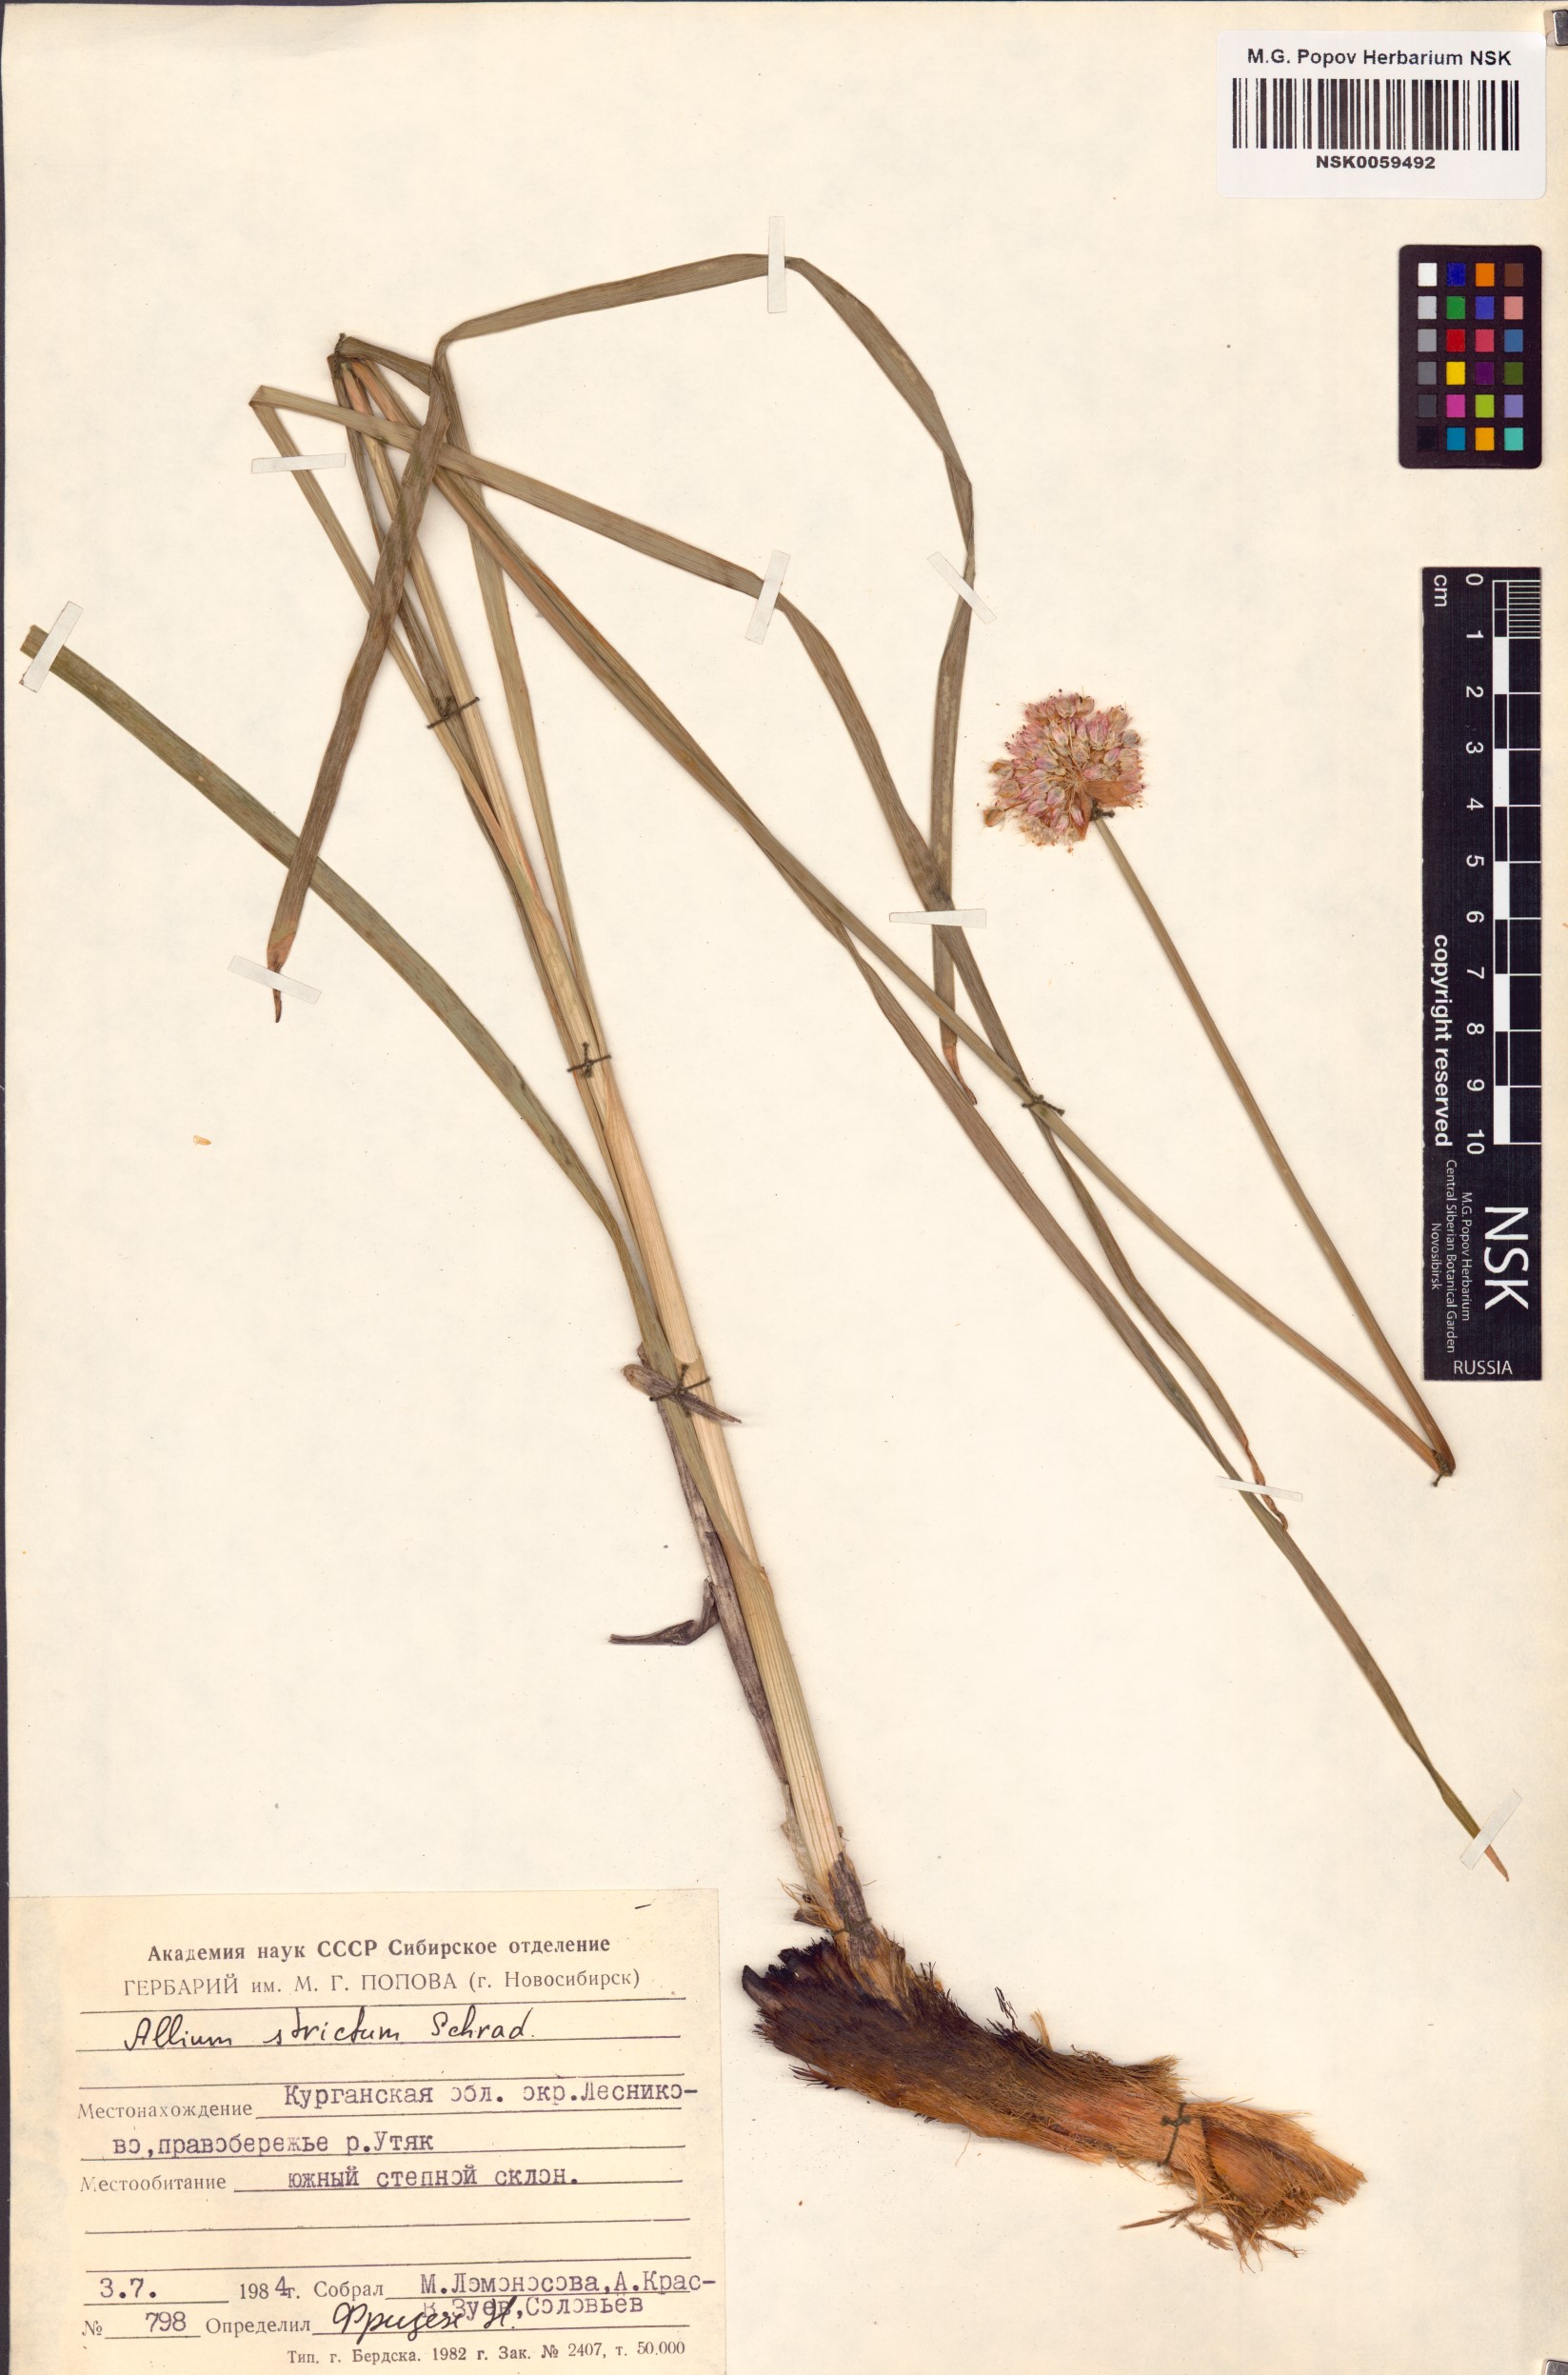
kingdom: Plantae
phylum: Tracheophyta
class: Liliopsida
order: Asparagales
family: Amaryllidaceae
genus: Allium
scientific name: Allium strictum
